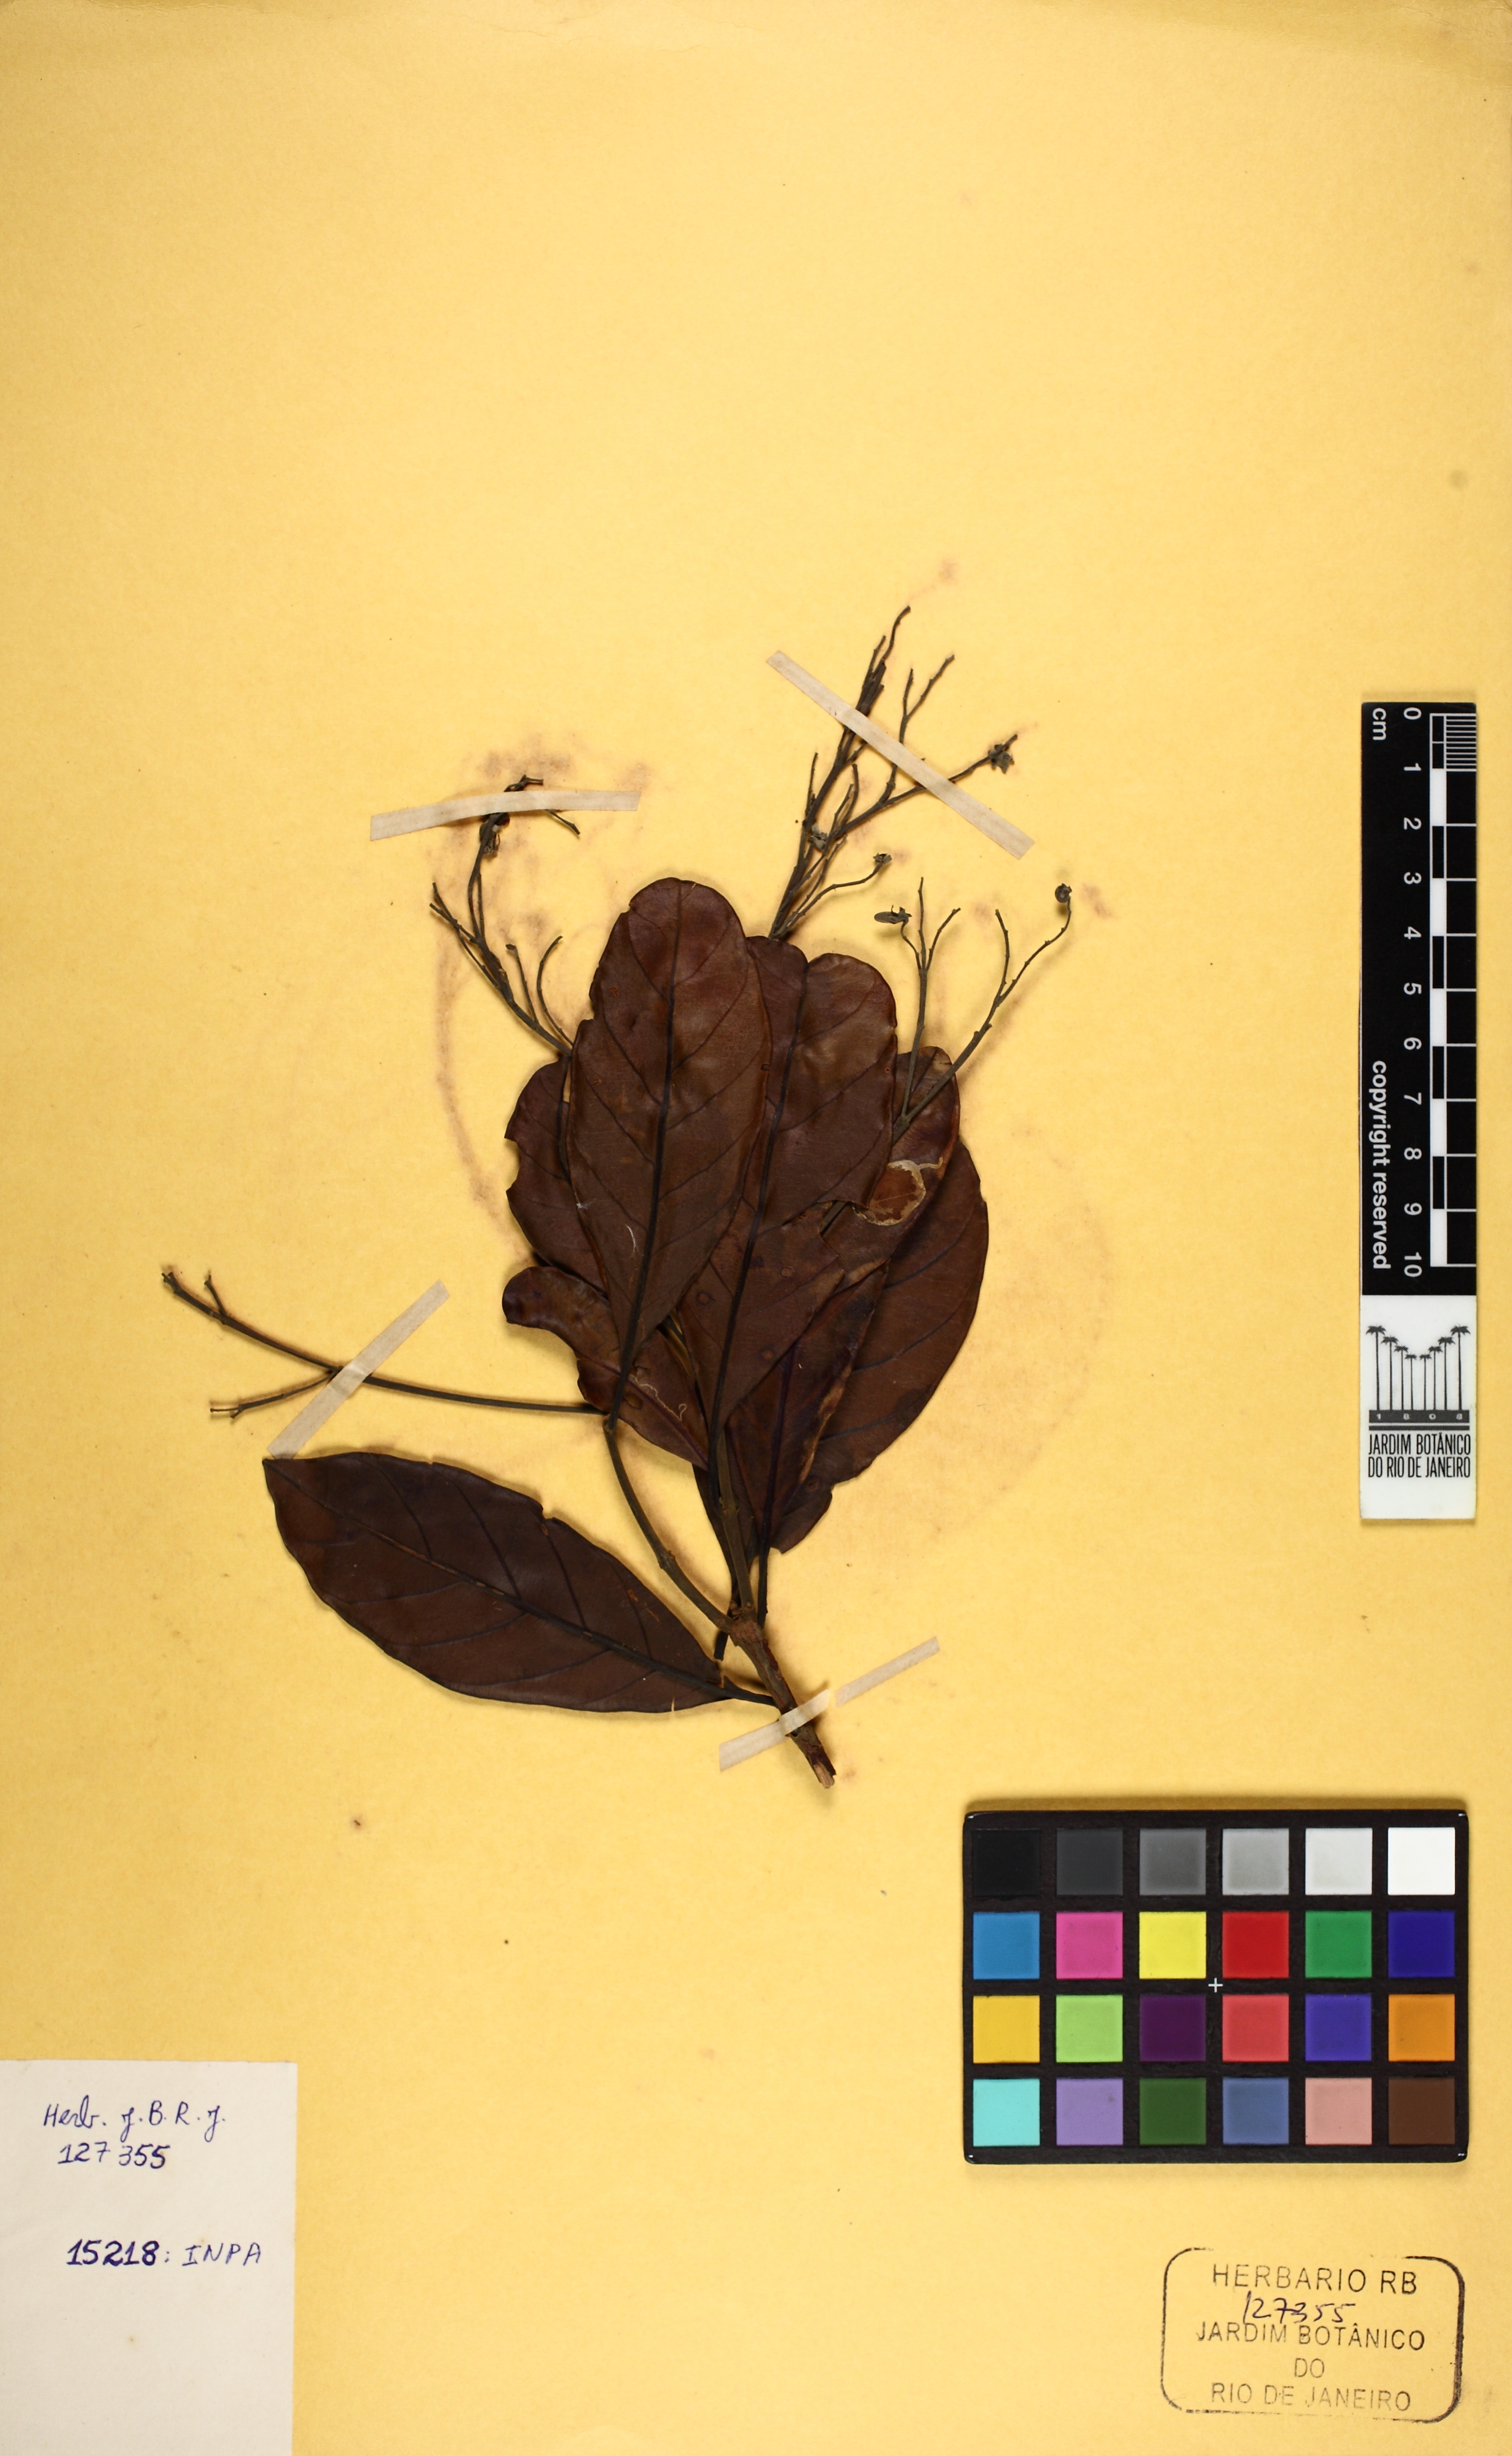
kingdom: Plantae
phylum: Tracheophyta
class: Magnoliopsida
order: Myrtales
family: Vochysiaceae
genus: Erisma
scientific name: Erisma uncinatum
